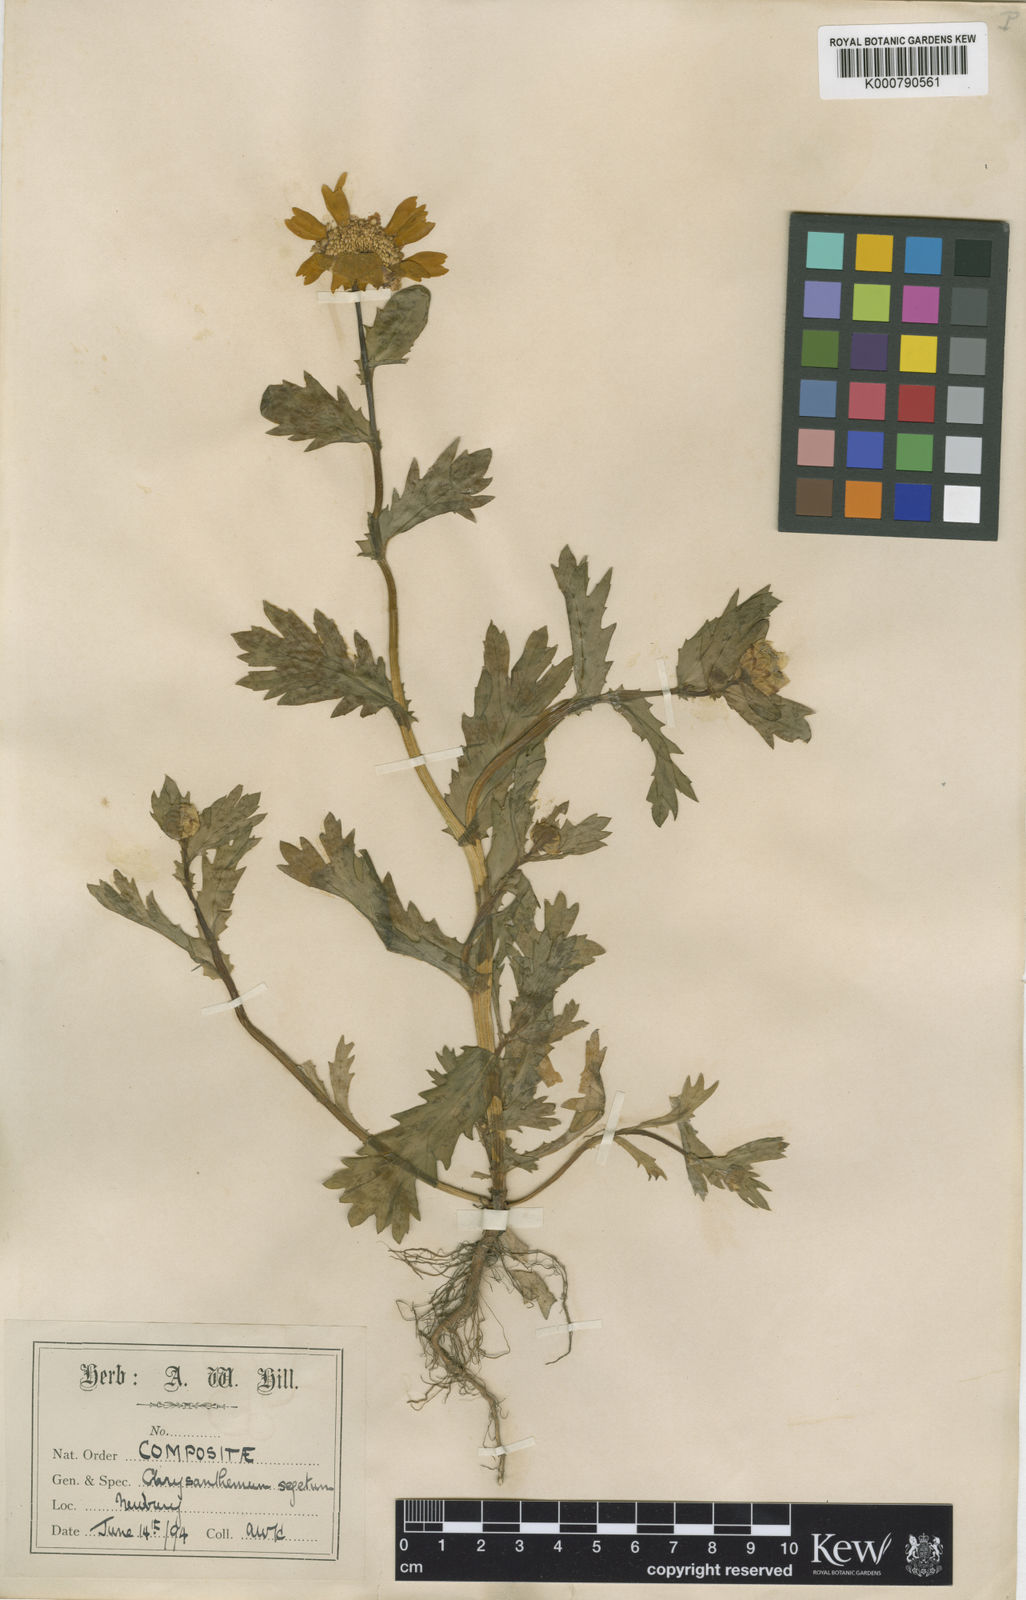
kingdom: Plantae
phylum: Tracheophyta
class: Magnoliopsida
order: Asterales
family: Asteraceae
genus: Glebionis
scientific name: Glebionis
